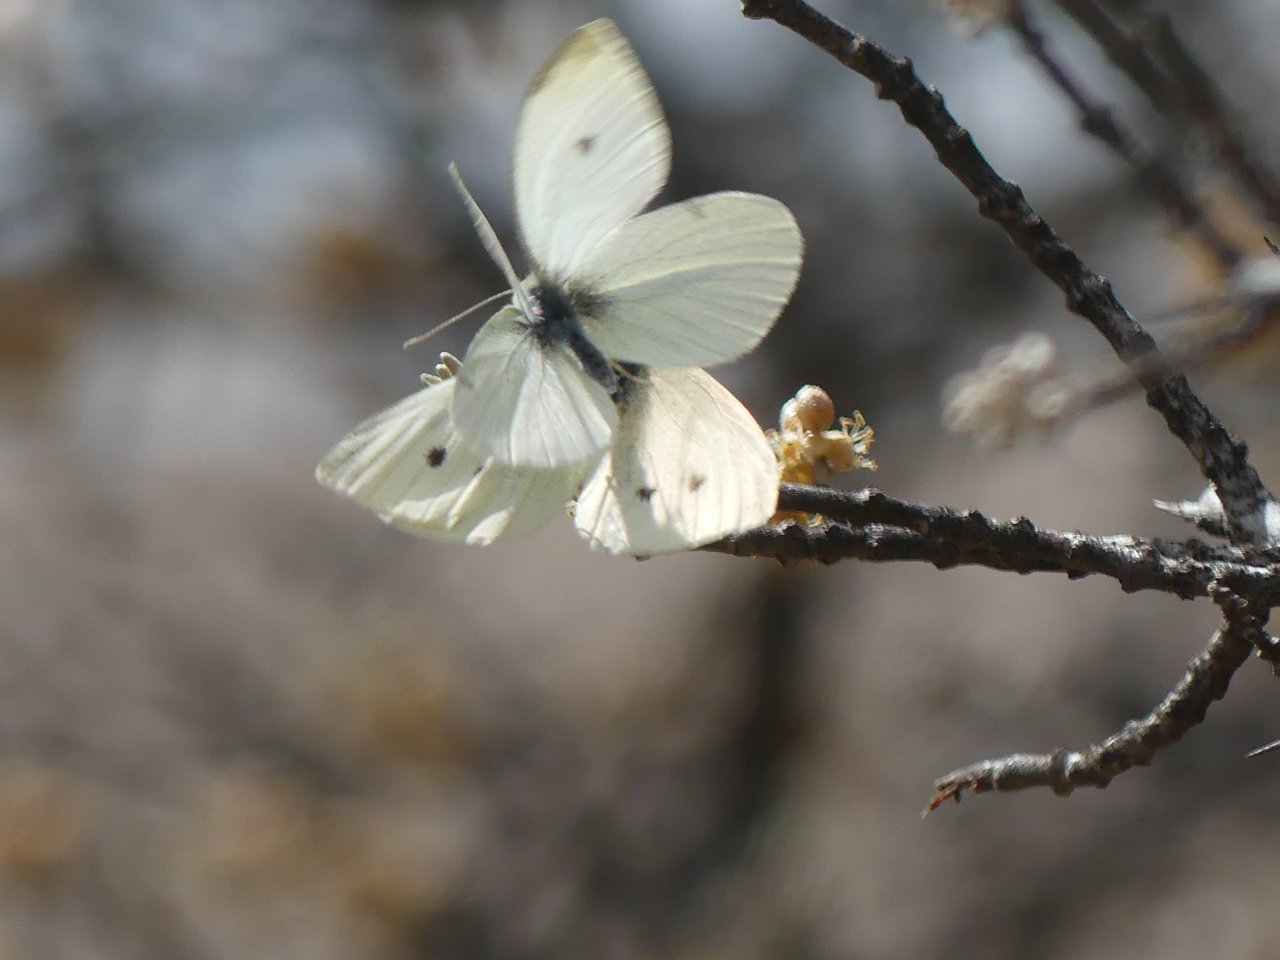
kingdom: Animalia
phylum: Arthropoda
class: Insecta
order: Lepidoptera
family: Pieridae
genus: Pieris
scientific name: Pieris rapae
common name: Cabbage White
